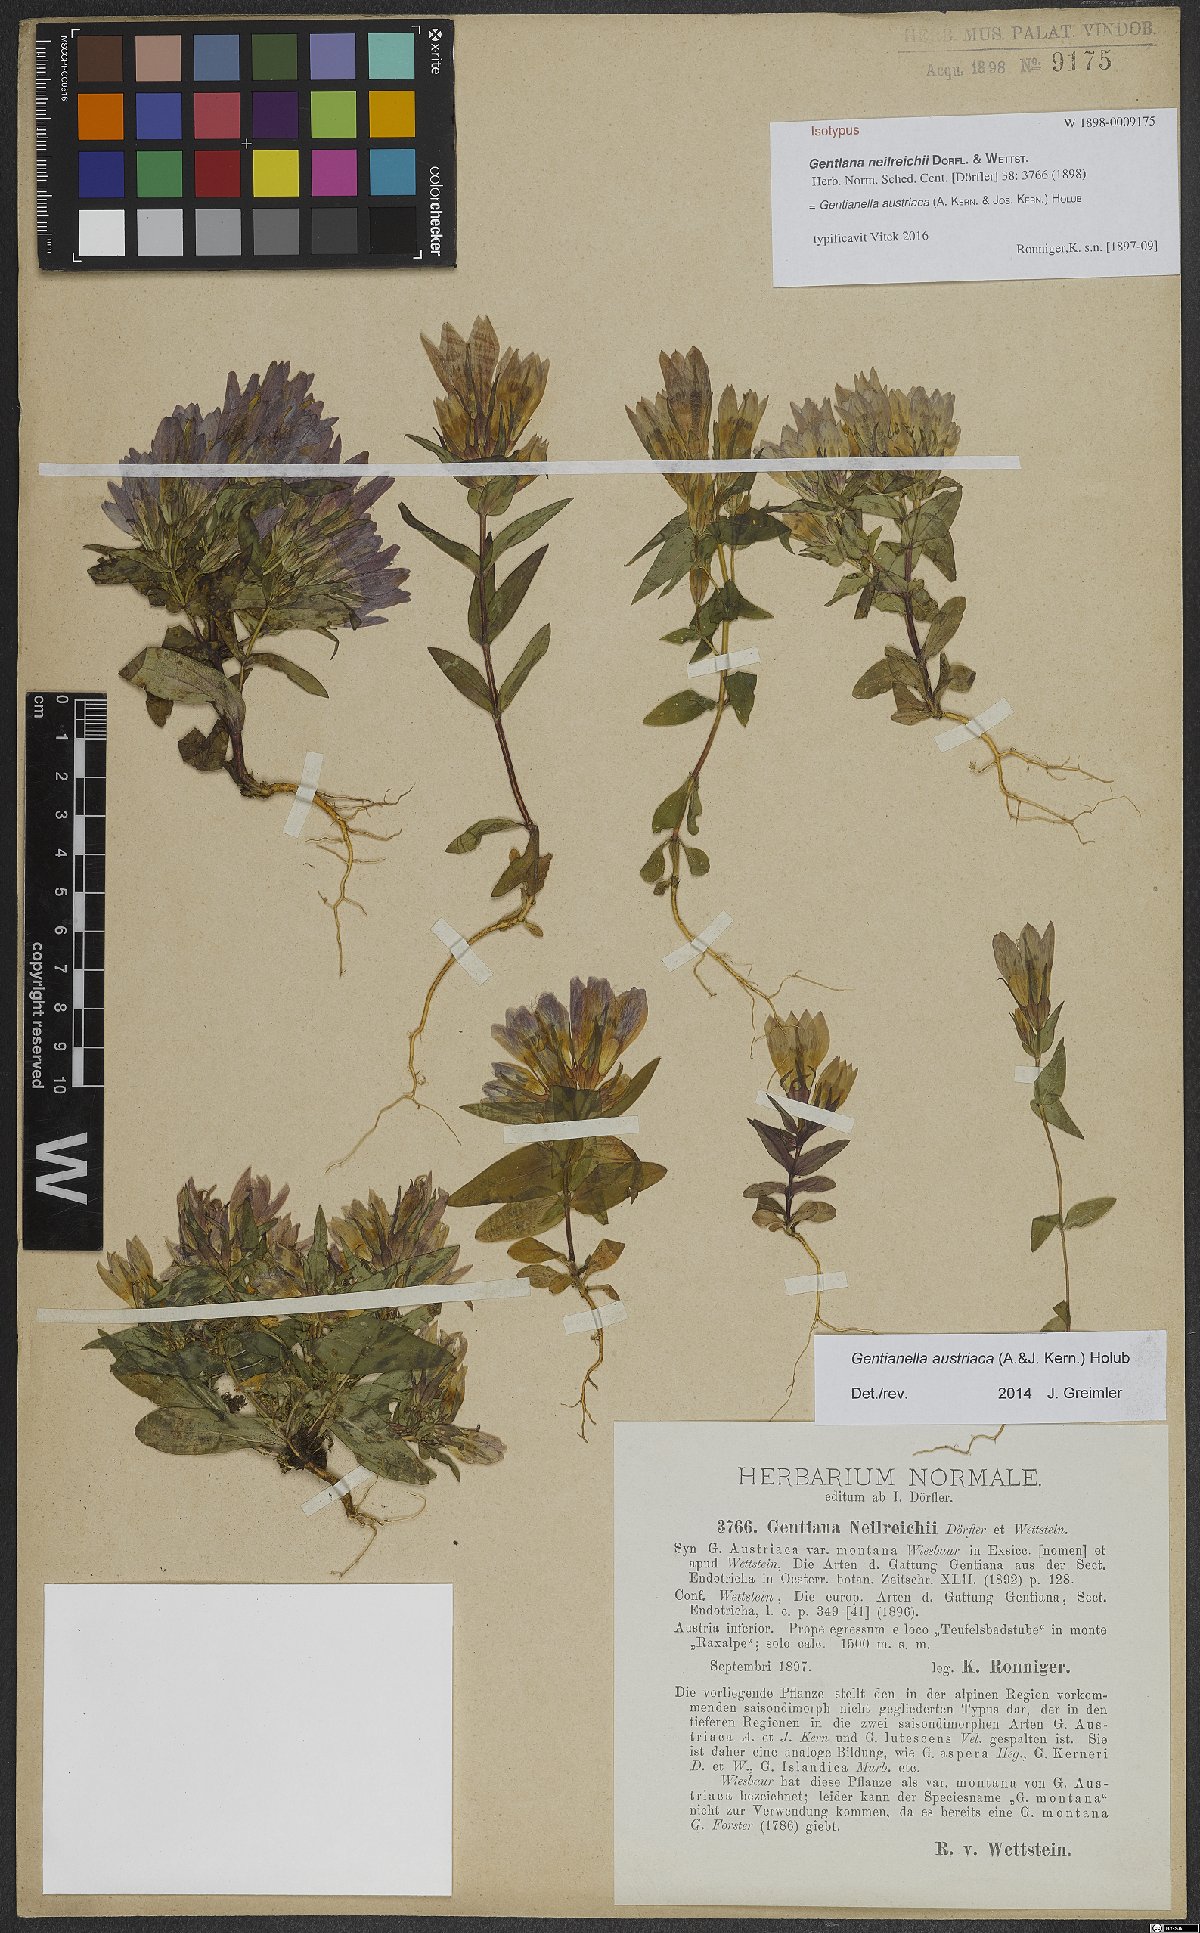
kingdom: Plantae
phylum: Tracheophyta
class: Magnoliopsida
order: Gentianales
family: Gentianaceae
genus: Gentianella
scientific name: Gentianella austriaca
